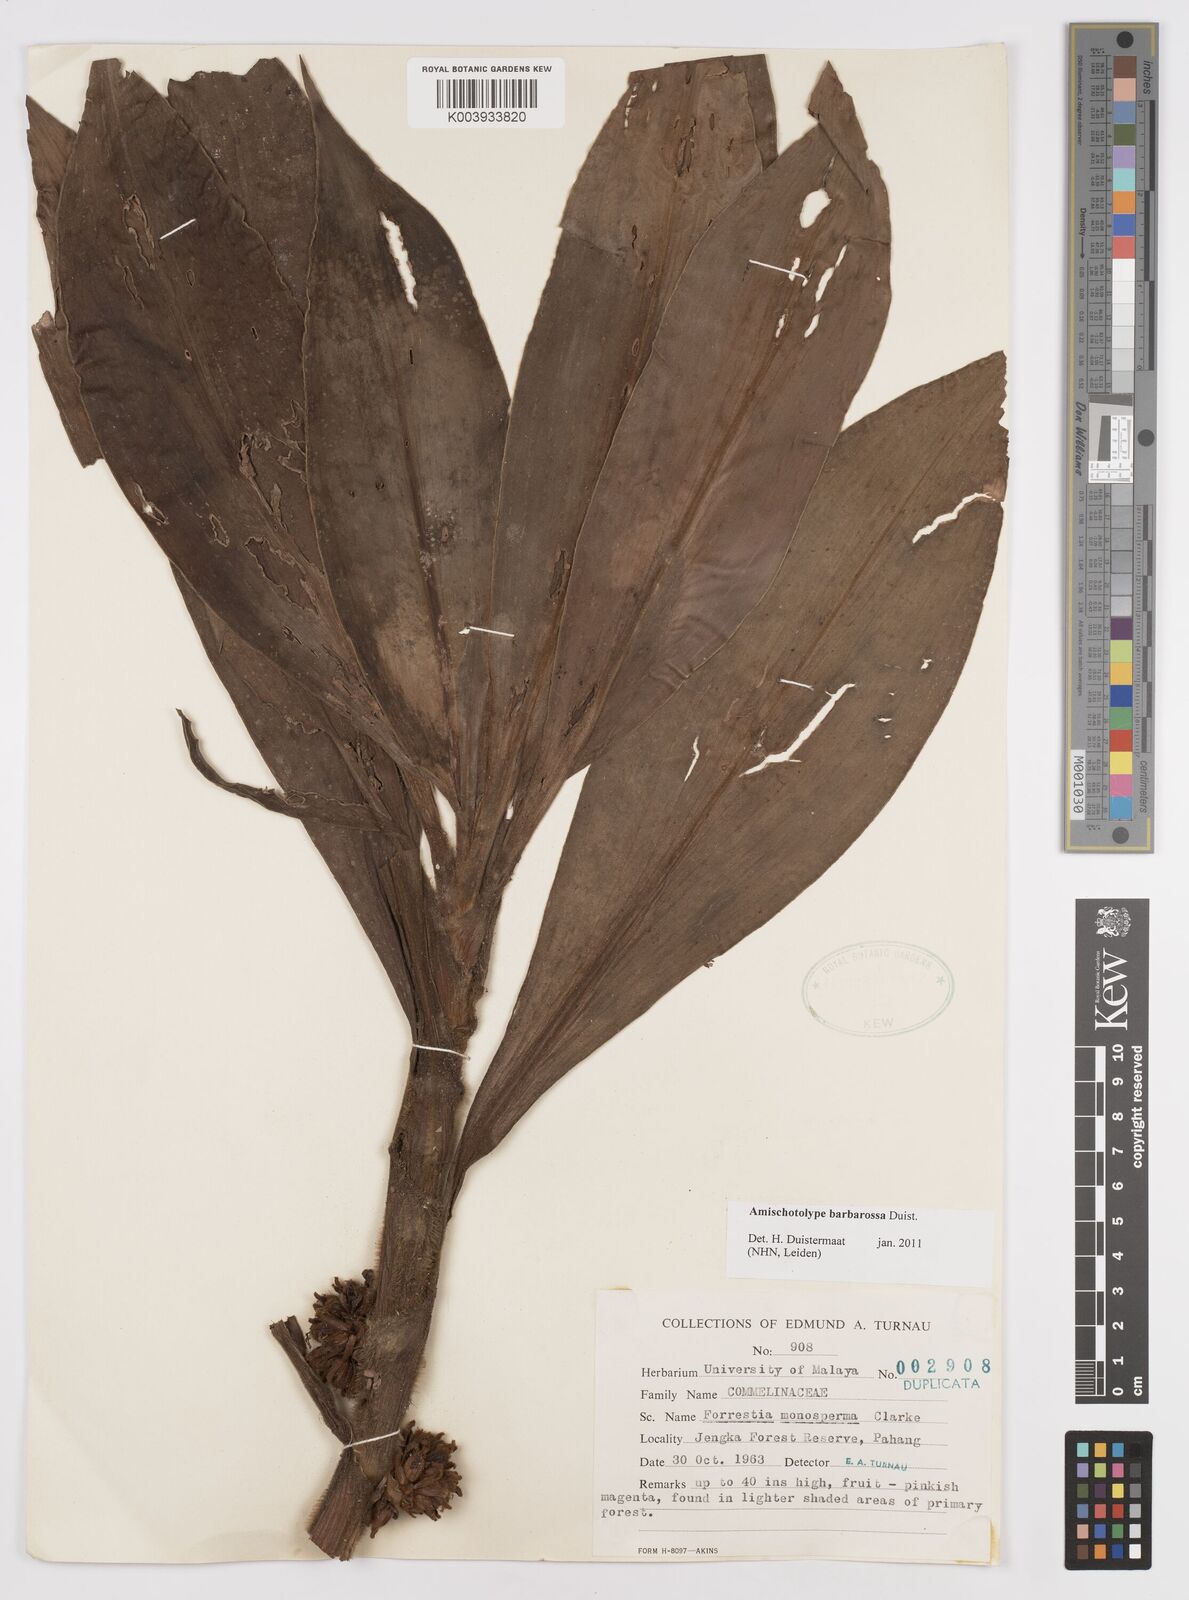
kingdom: Plantae
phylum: Tracheophyta
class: Liliopsida
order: Commelinales
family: Commelinaceae
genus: Amischotolype
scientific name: Amischotolype barbarossa
